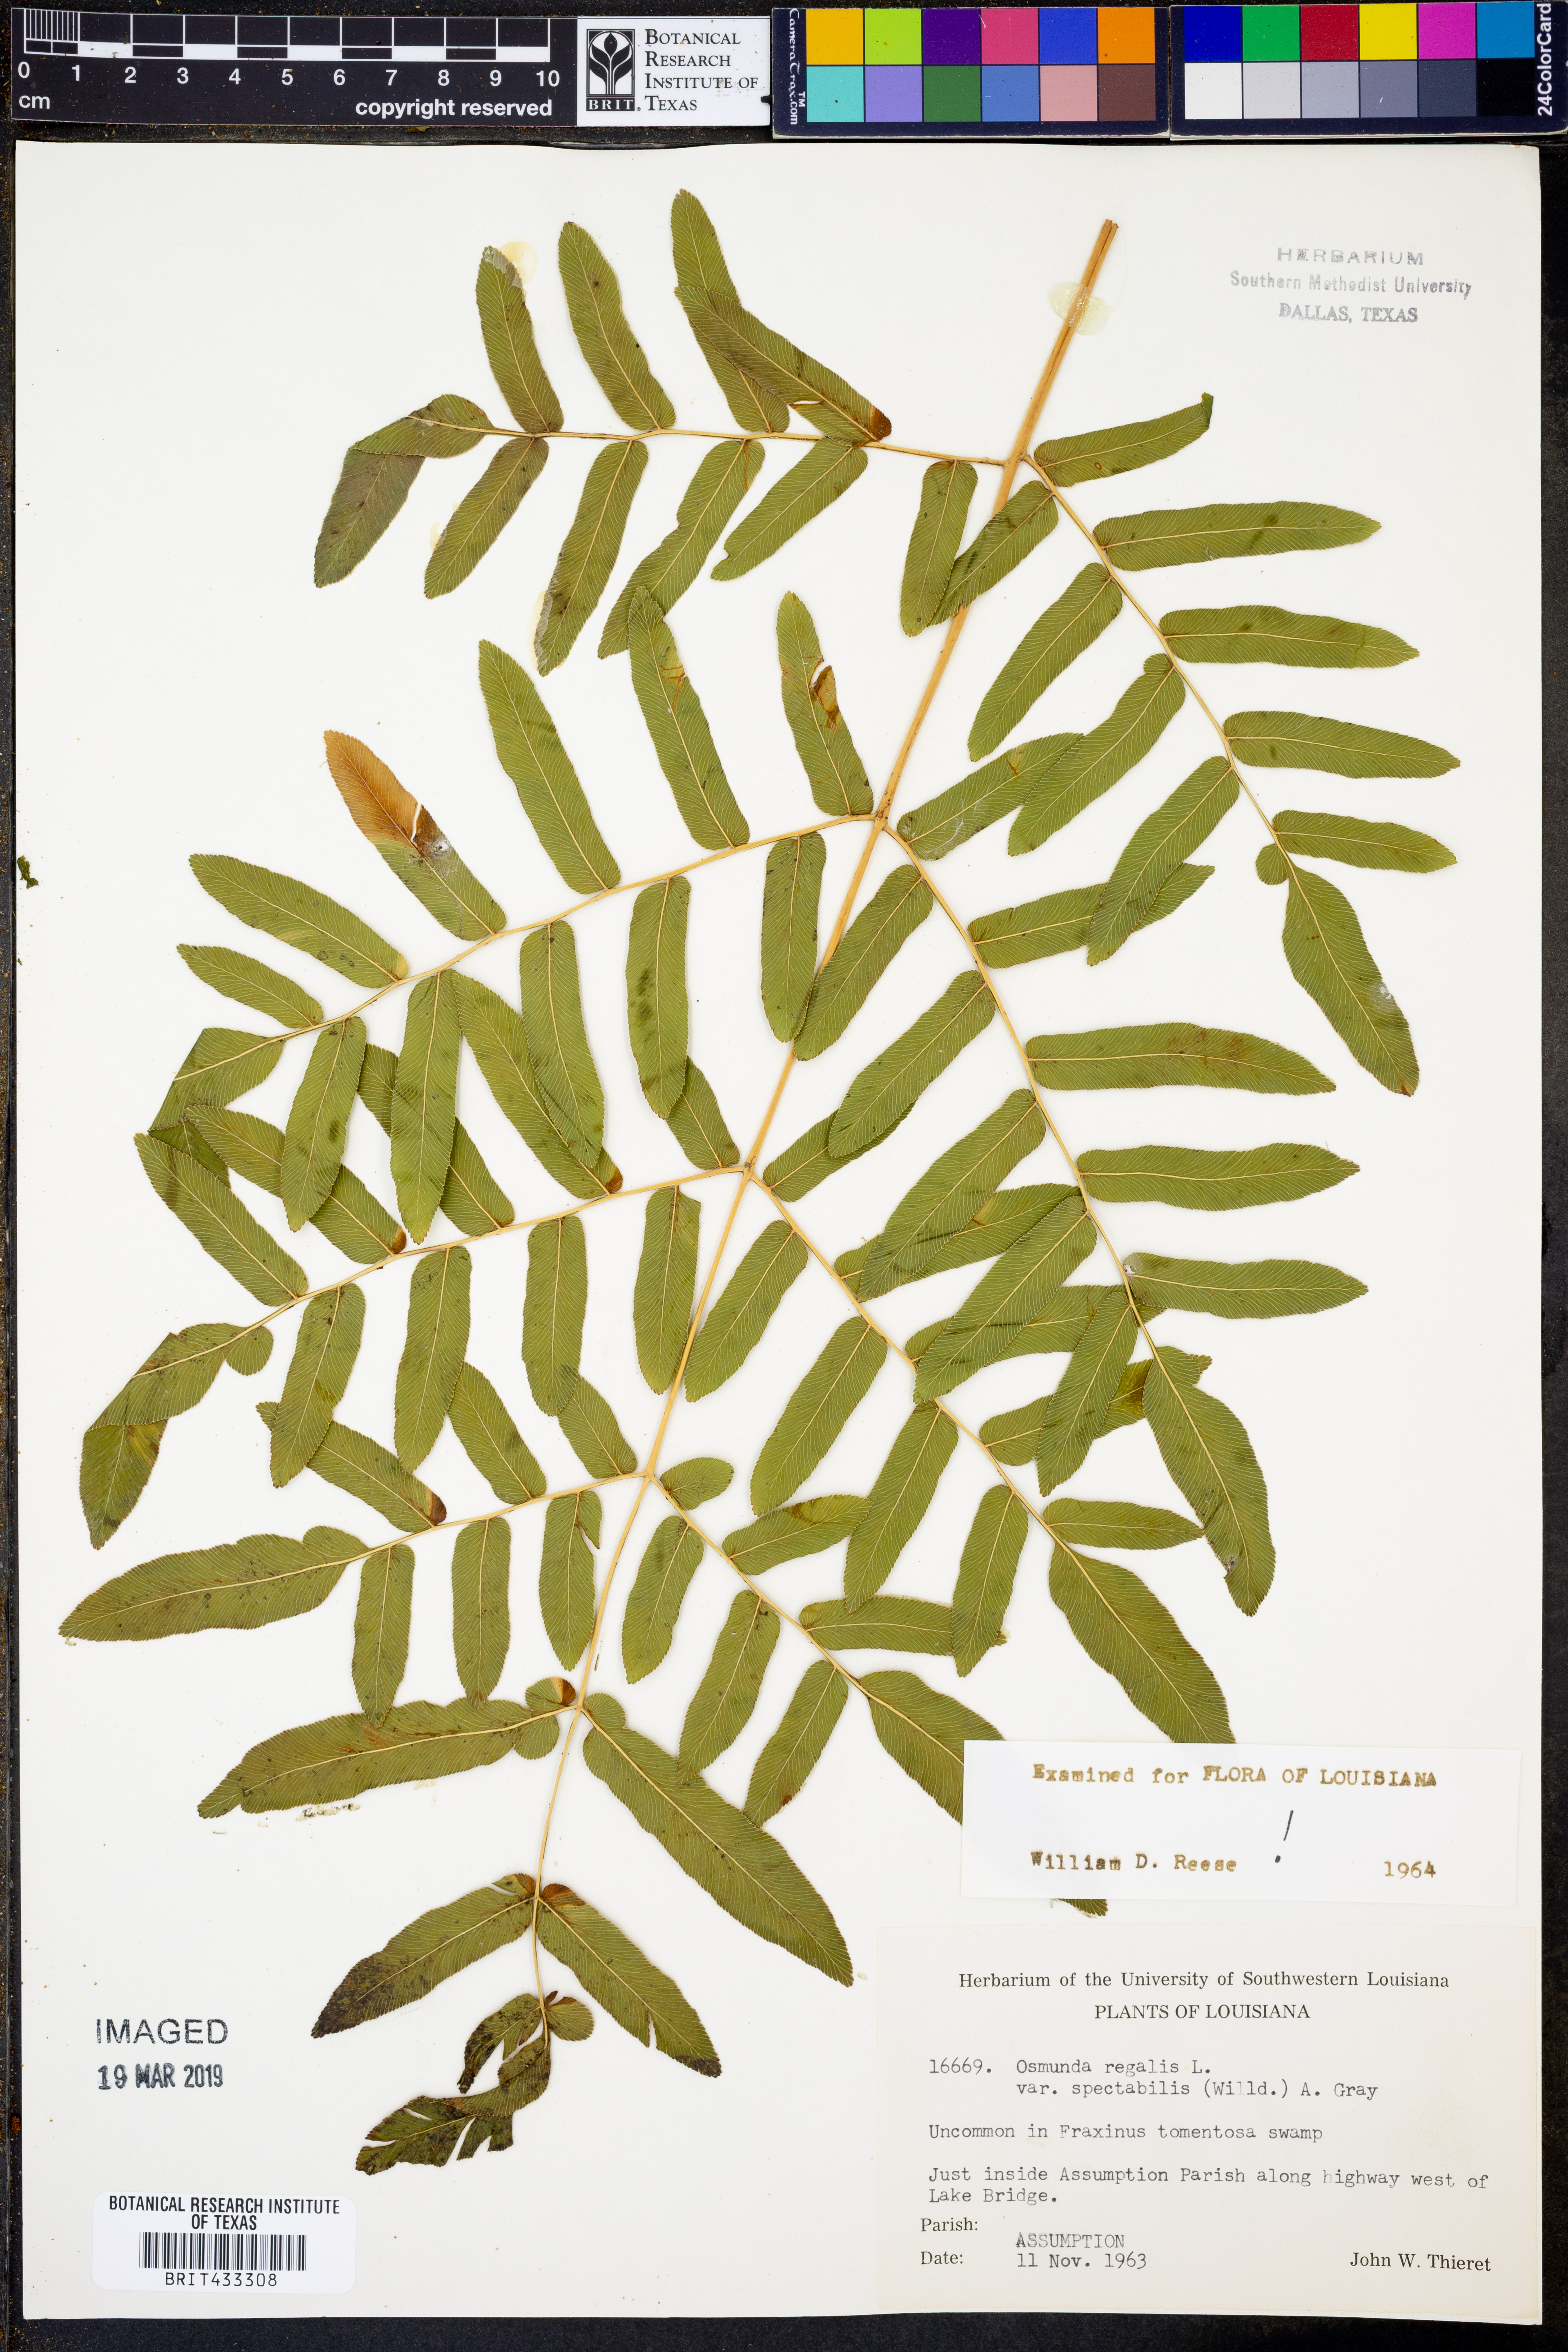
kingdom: Plantae
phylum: Tracheophyta
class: Polypodiopsida
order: Osmundales
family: Osmundaceae
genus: Osmunda
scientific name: Osmunda spectabilis
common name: American royal fern
